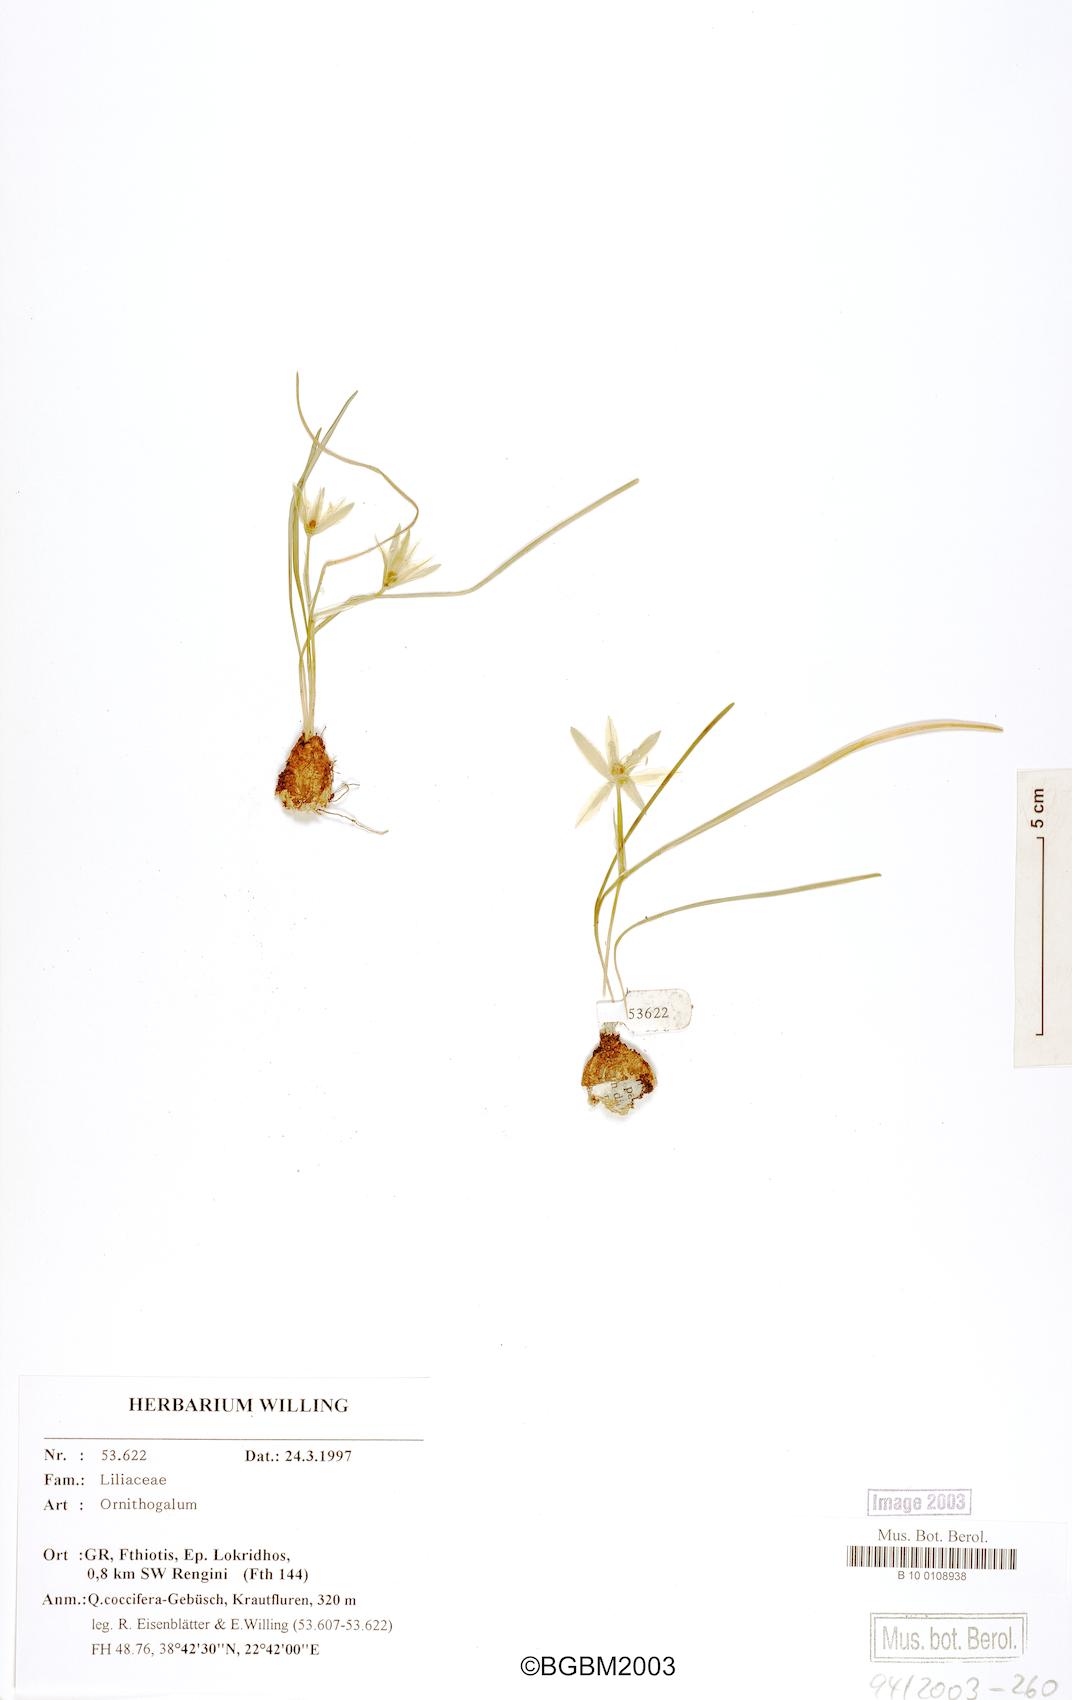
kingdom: Plantae
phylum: Tracheophyta
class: Liliopsida
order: Asparagales
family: Asparagaceae
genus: Ornithogalum
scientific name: Ornithogalum
